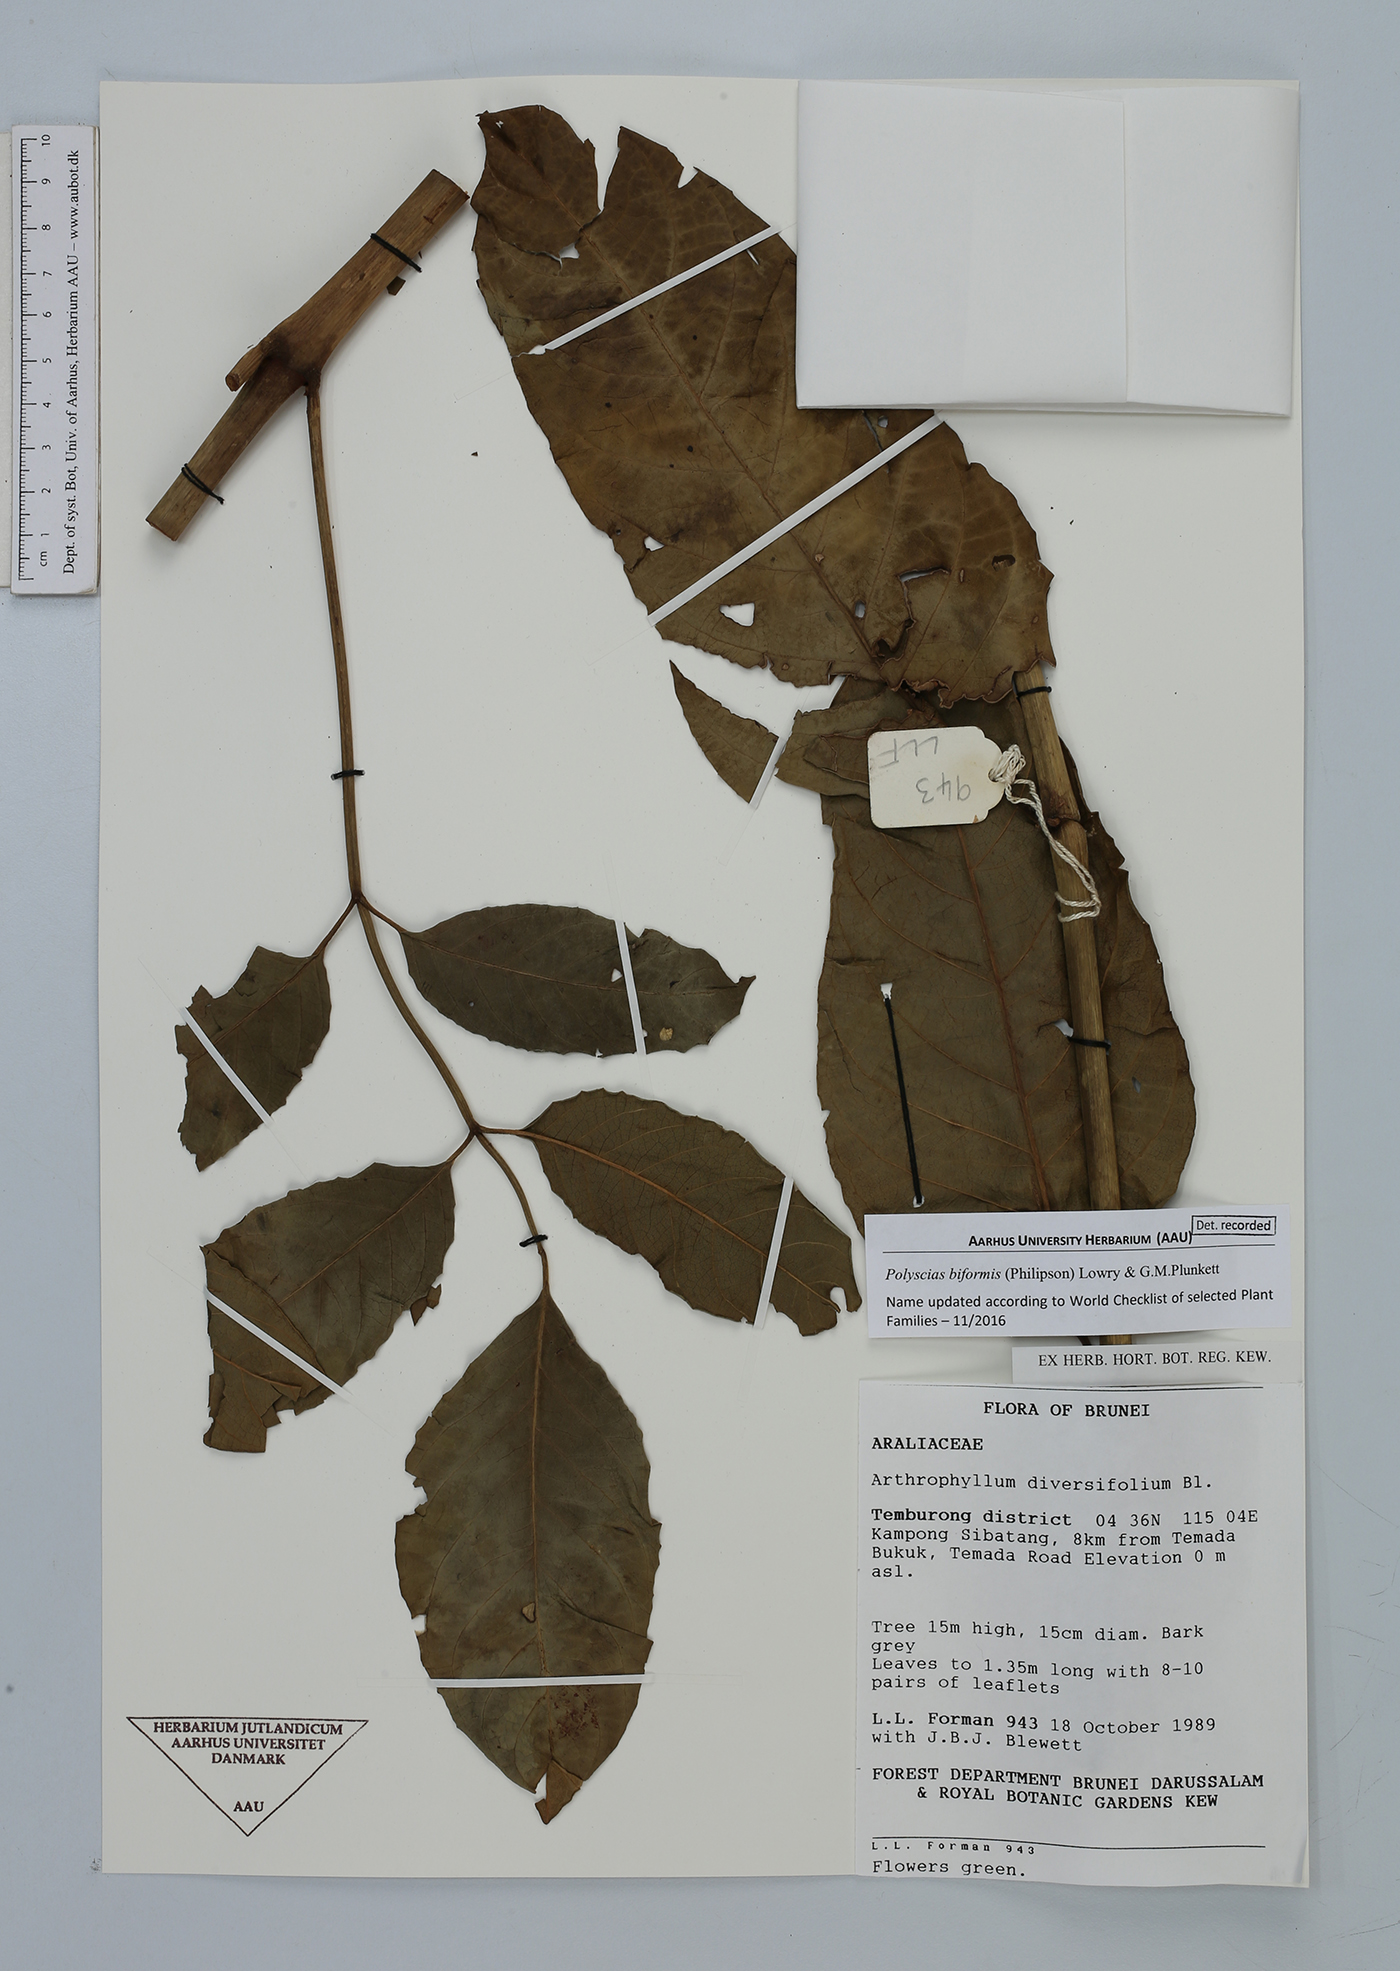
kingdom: Plantae
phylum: Tracheophyta
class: Magnoliopsida
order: Apiales
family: Araliaceae
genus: Polyscias
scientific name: Polyscias biformis
